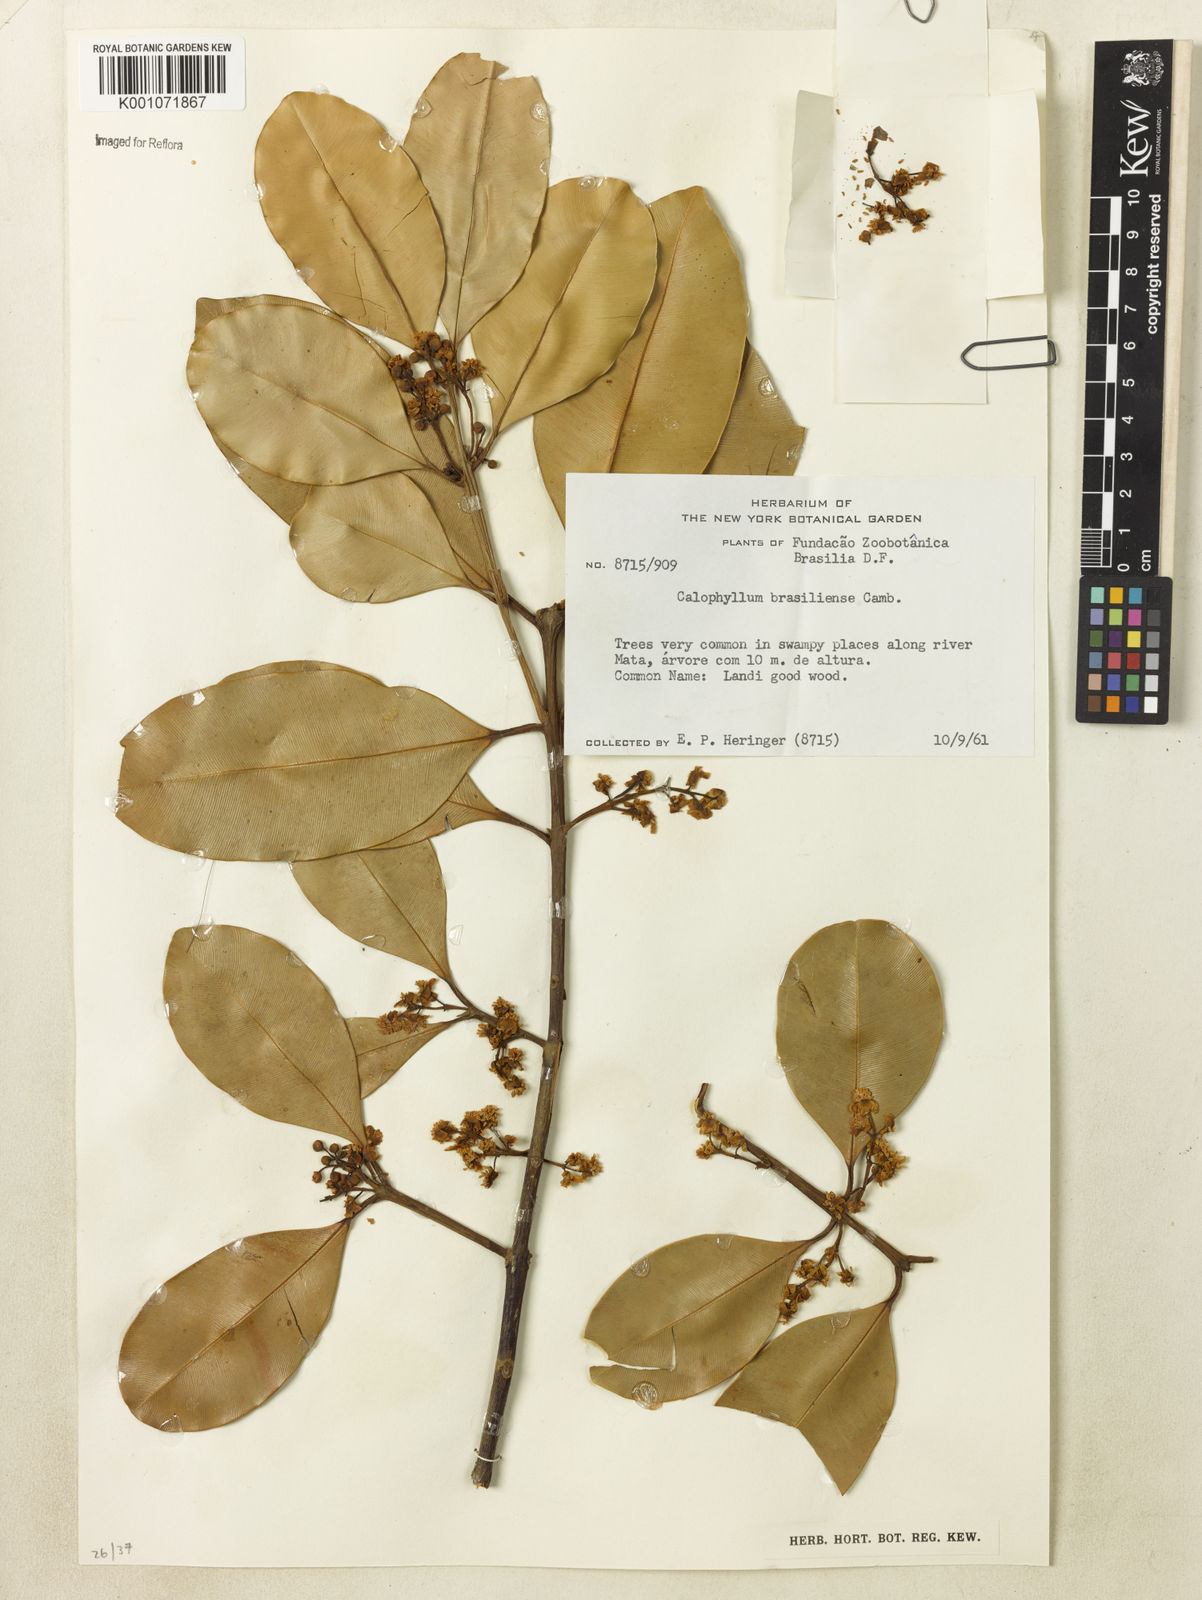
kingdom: Plantae
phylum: Tracheophyta
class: Magnoliopsida
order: Malpighiales
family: Calophyllaceae
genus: Calophyllum
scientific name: Calophyllum brasiliense
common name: Santa maria
